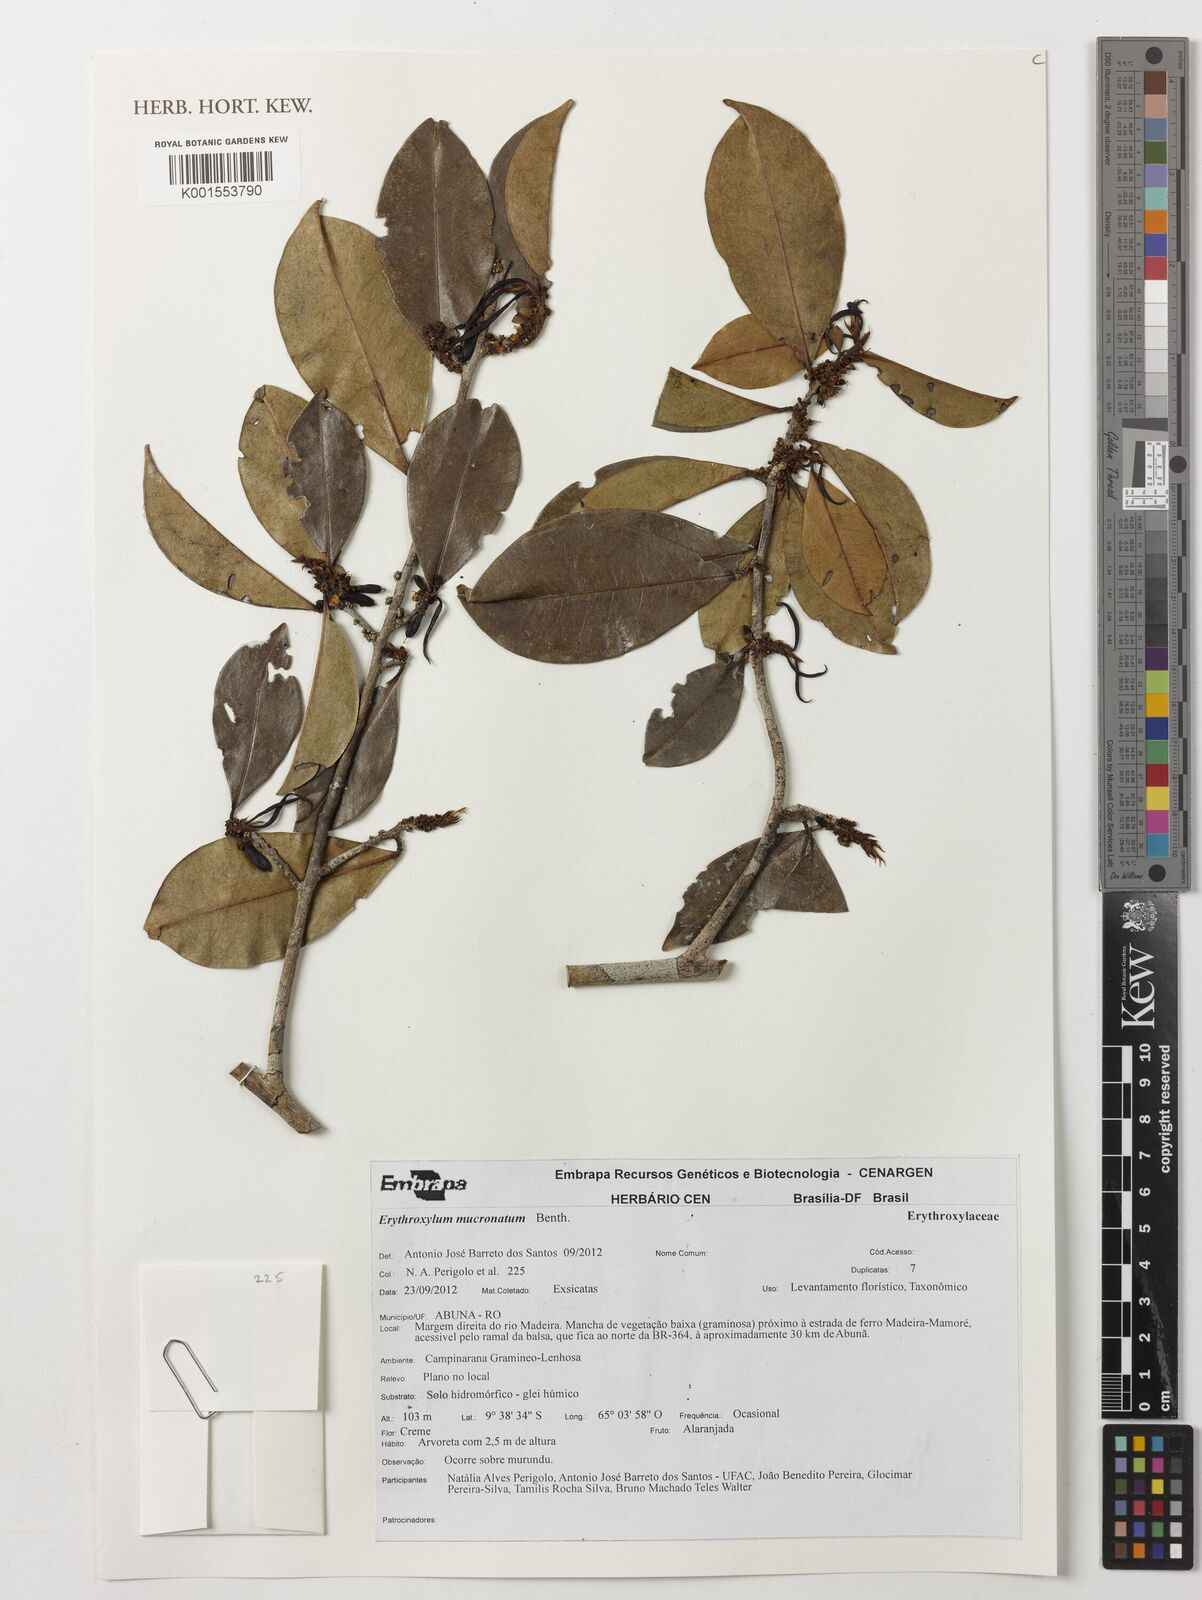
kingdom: Plantae
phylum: Tracheophyta
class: Magnoliopsida
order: Malpighiales
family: Erythroxylaceae
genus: Erythroxylum
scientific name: Erythroxylum mucronatum
